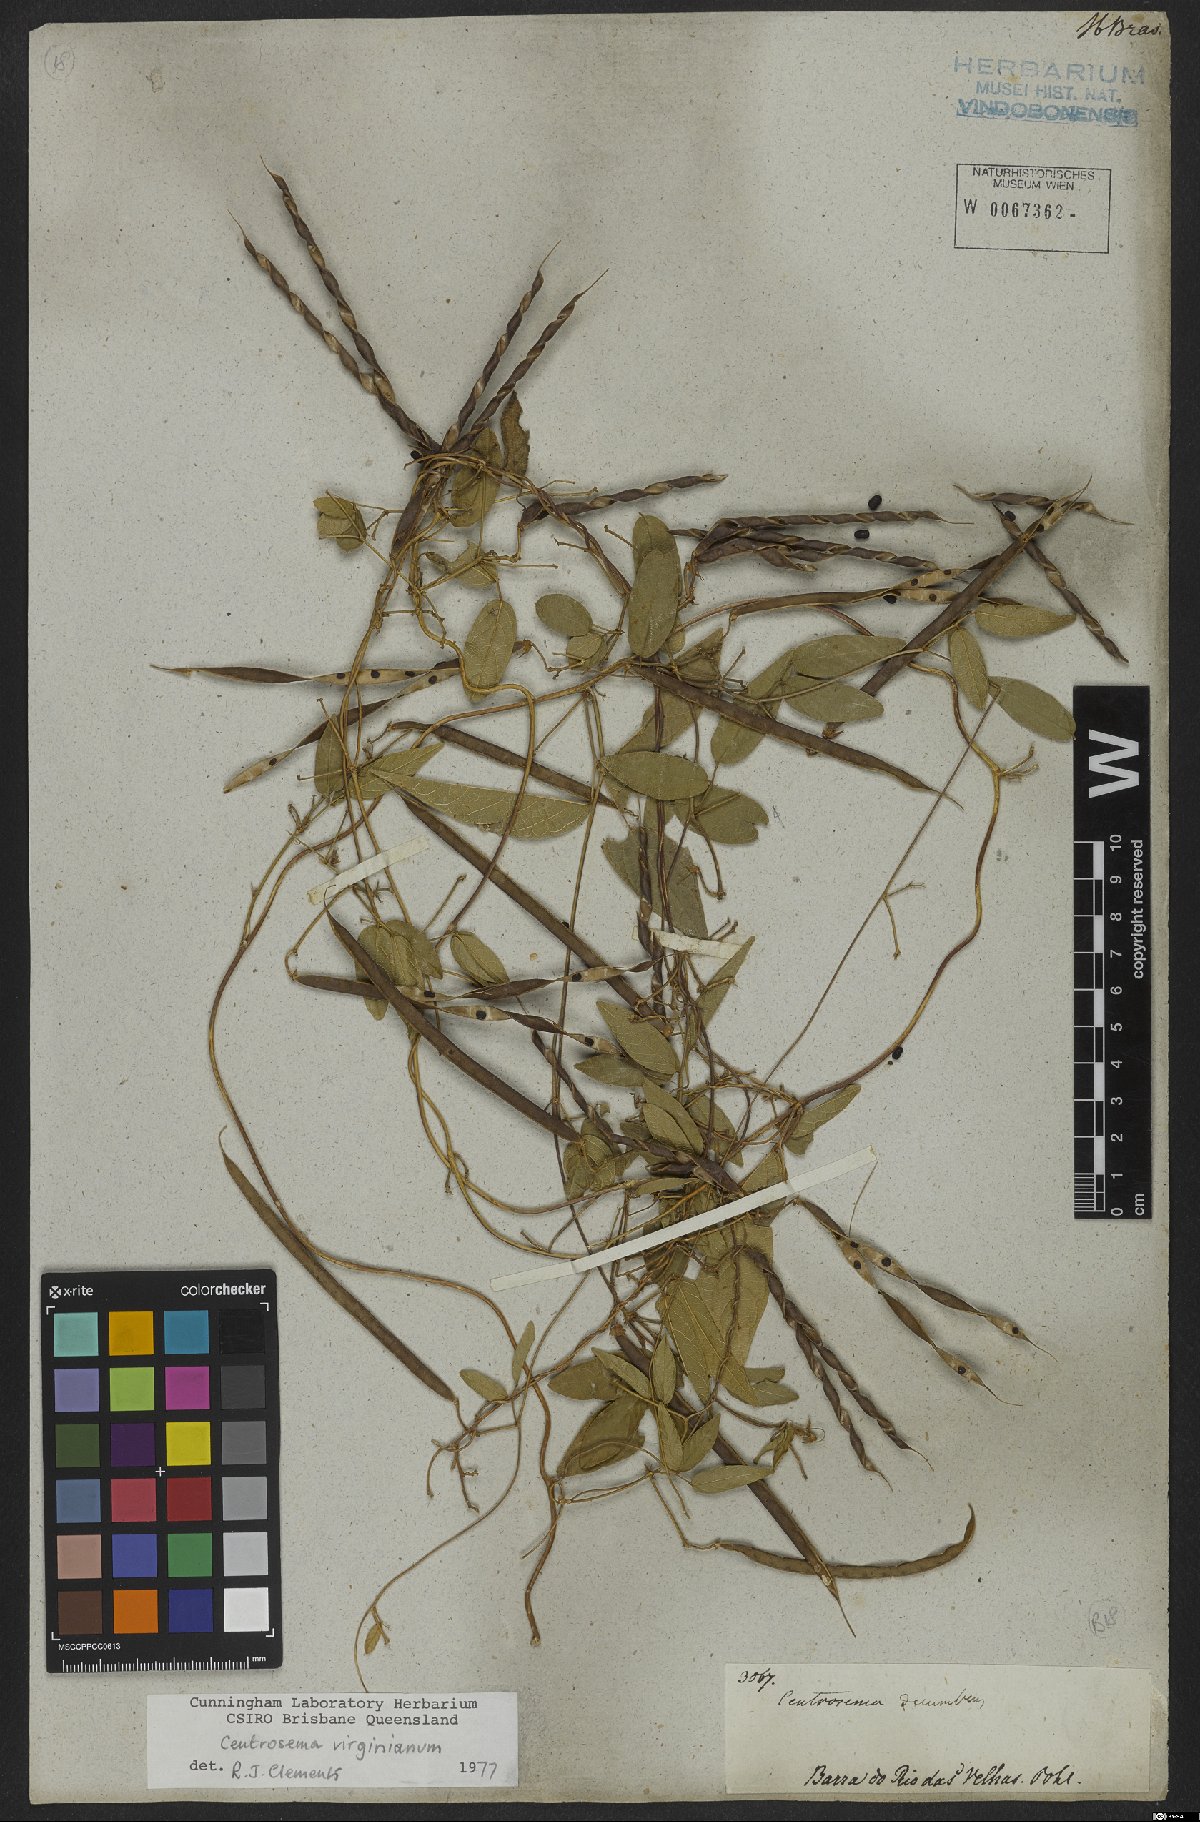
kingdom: Plantae
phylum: Tracheophyta
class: Magnoliopsida
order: Fabales
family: Fabaceae
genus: Centrosema
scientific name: Centrosema virginianum
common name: Butterfly-pea
